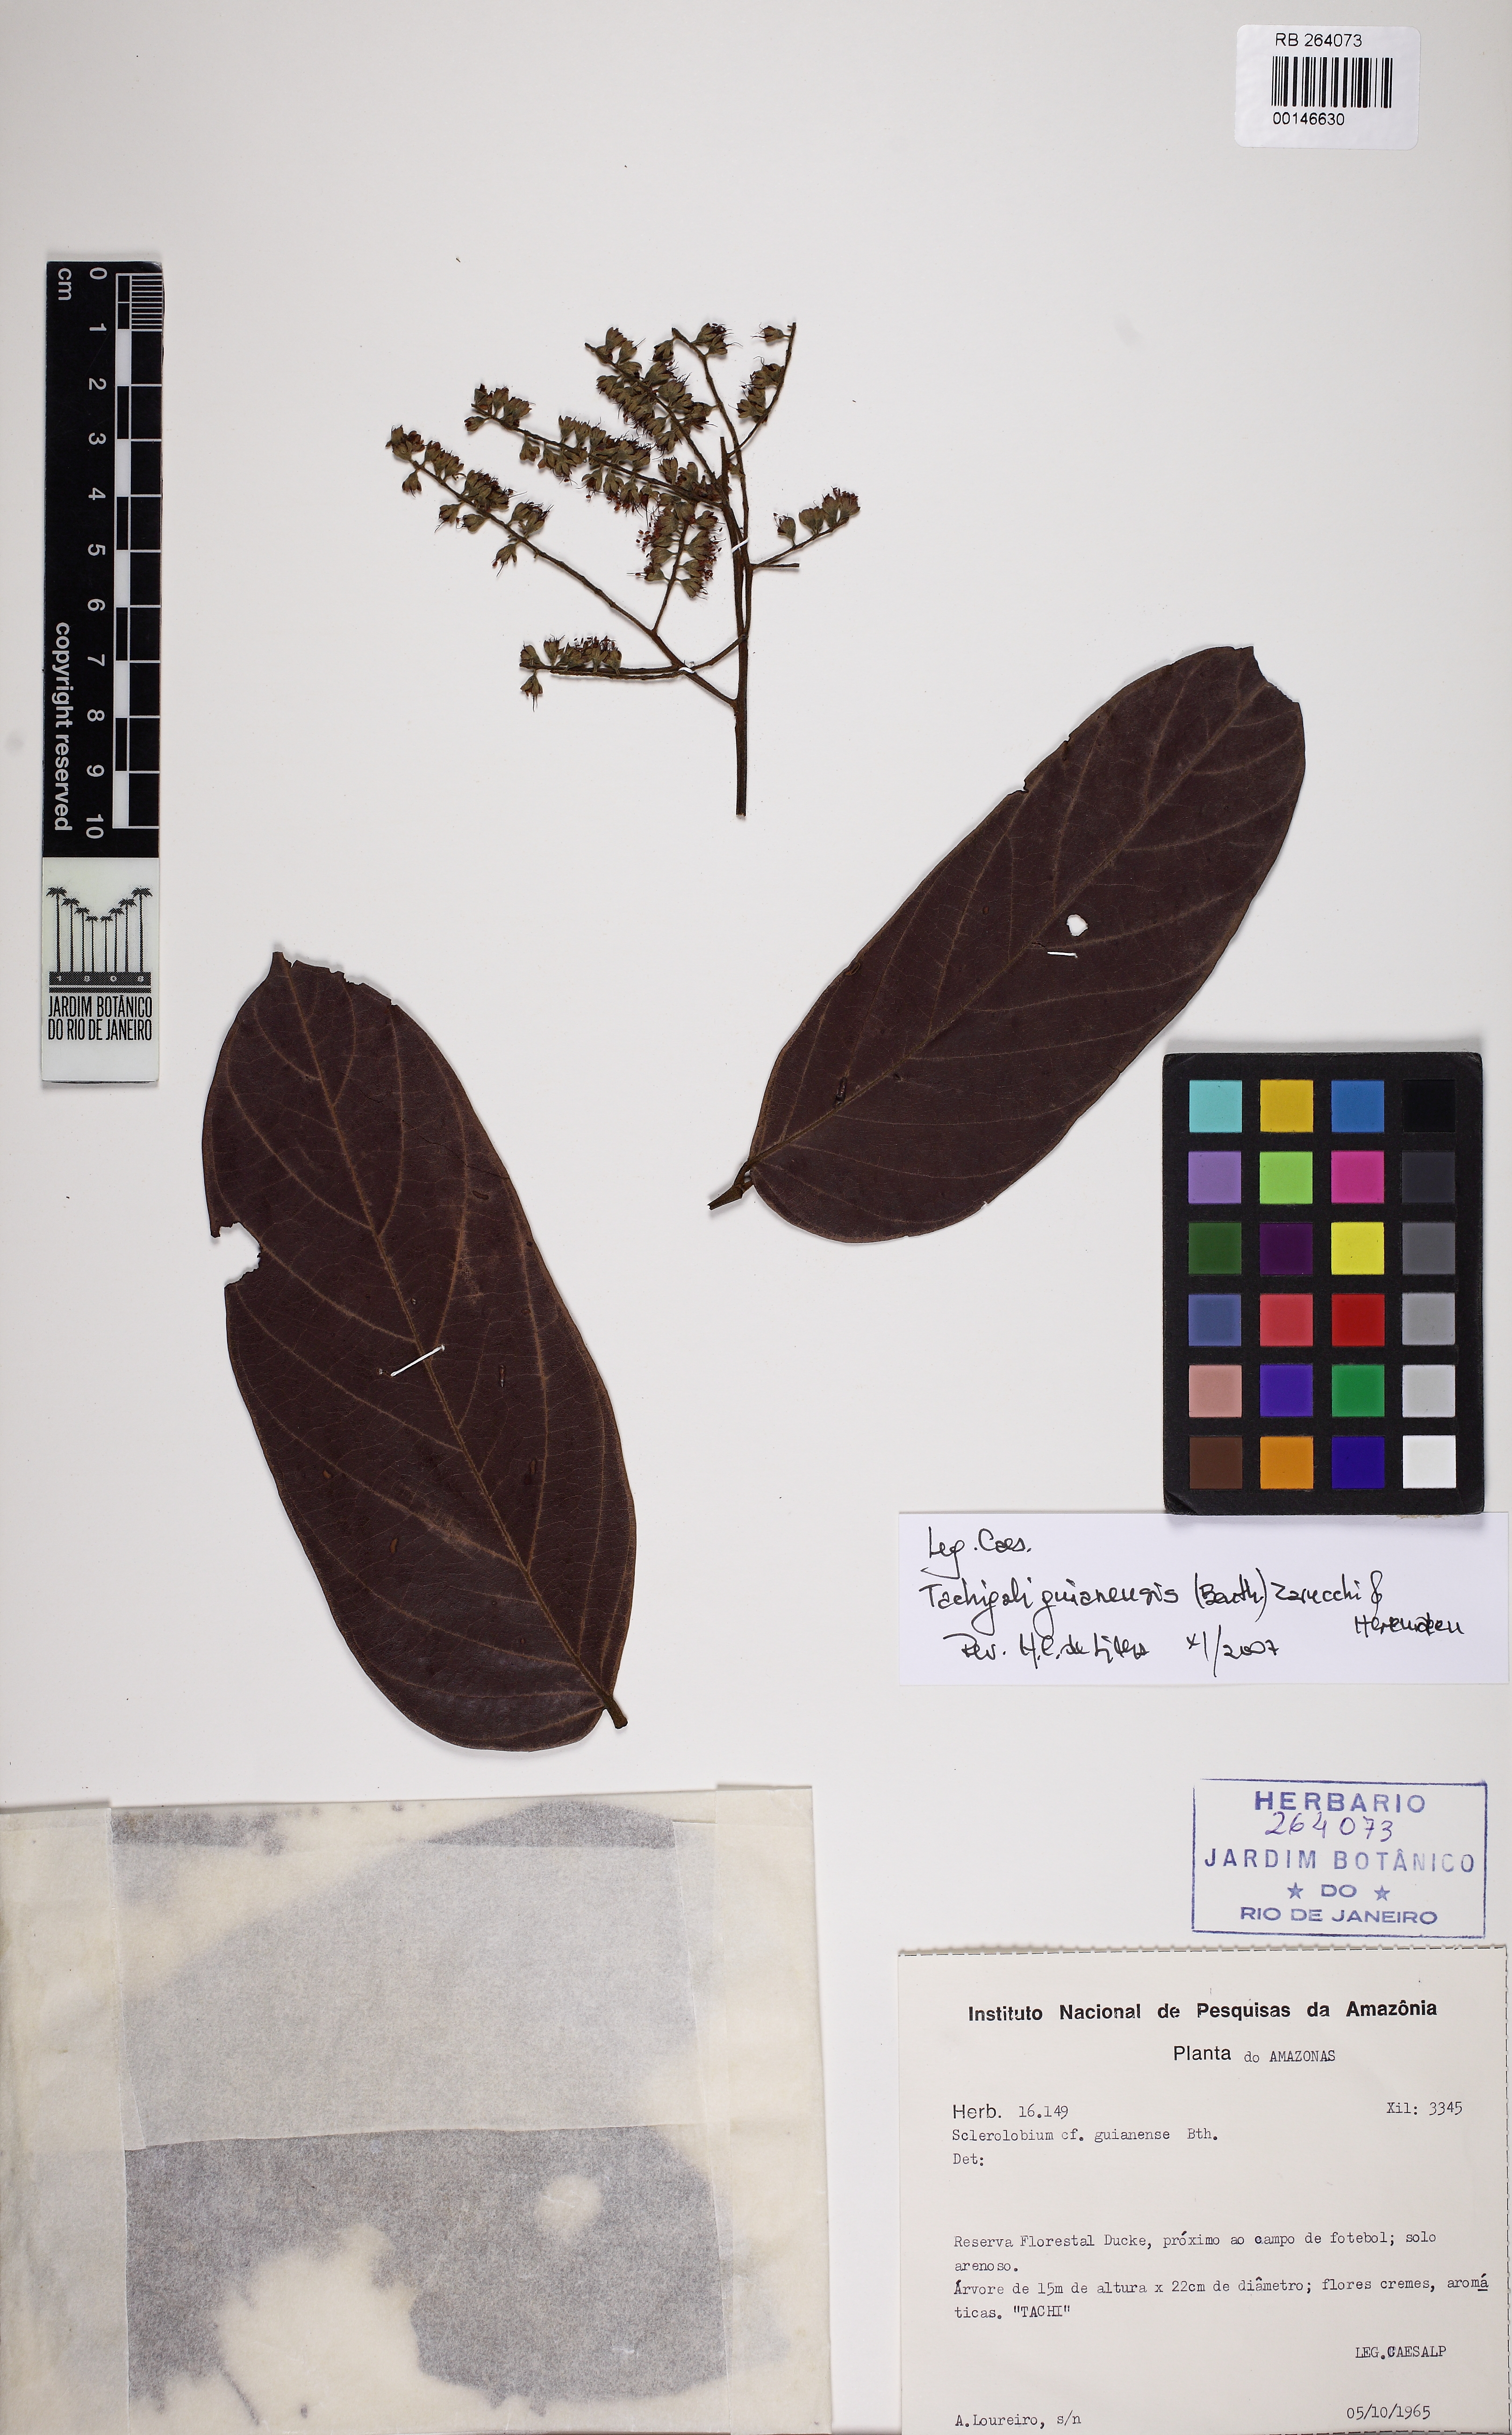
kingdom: Plantae
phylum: Tracheophyta
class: Magnoliopsida
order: Fabales
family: Fabaceae
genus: Tachigali
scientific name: Tachigali guianensis
